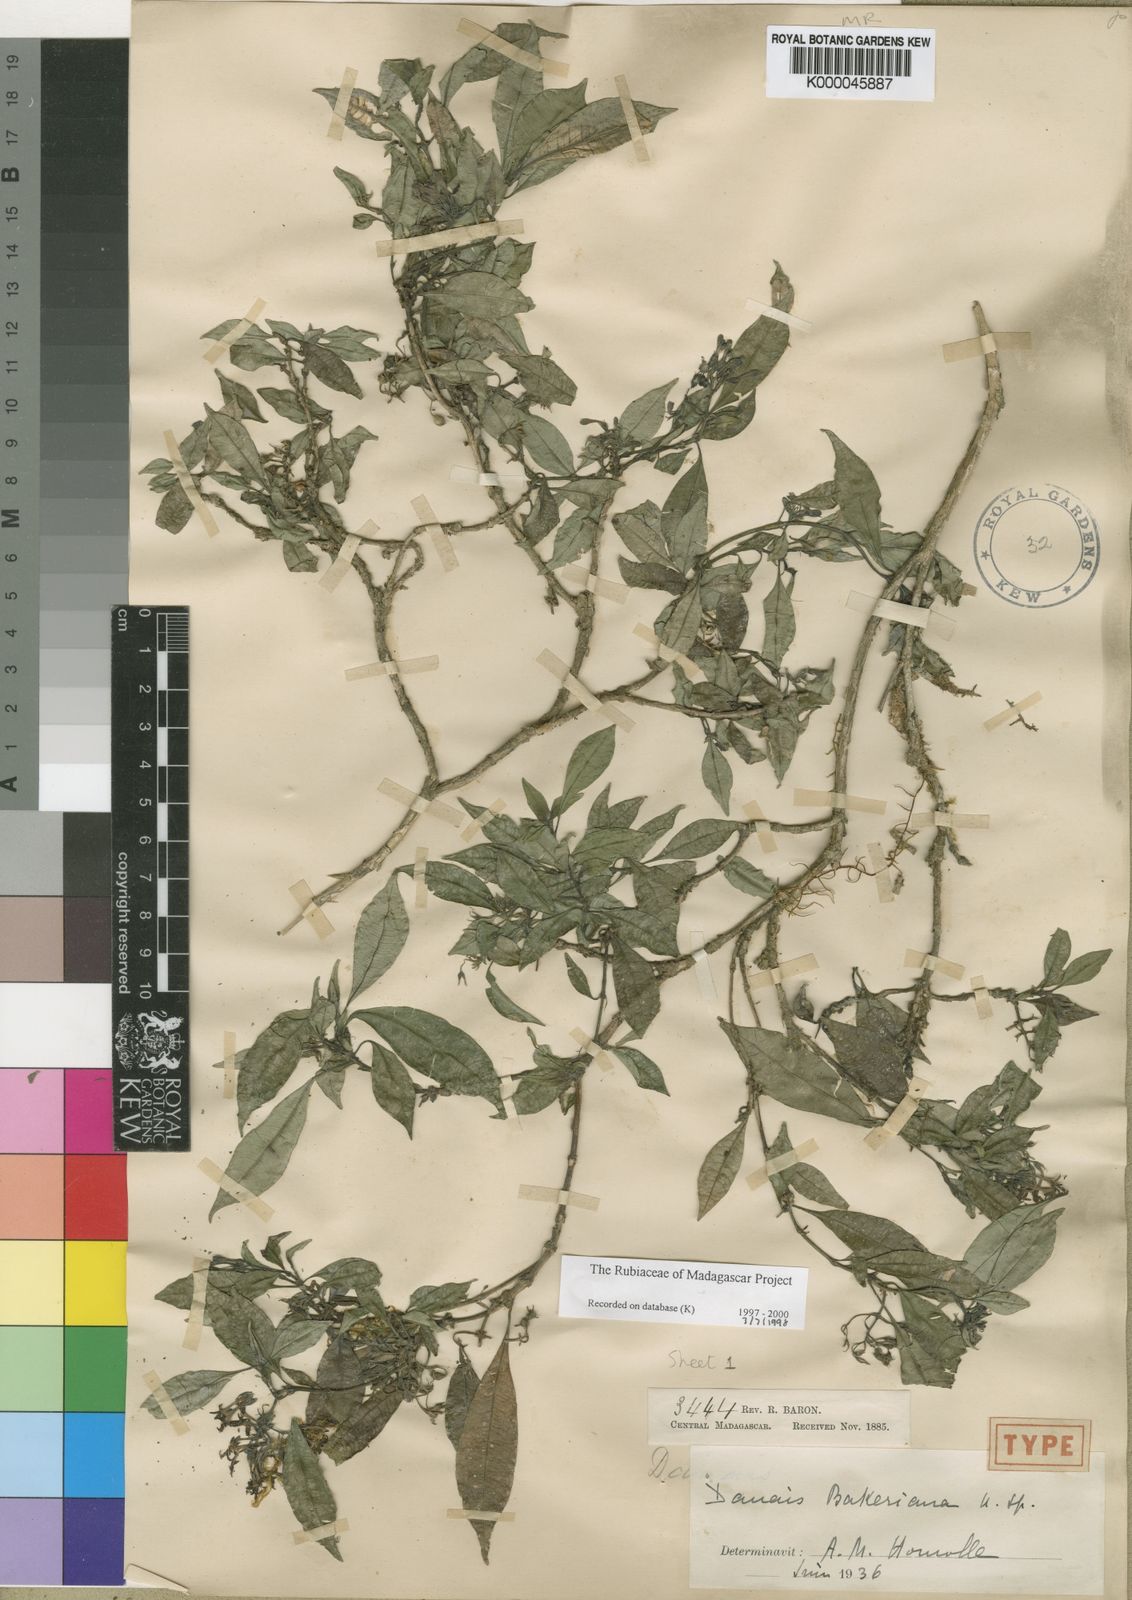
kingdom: Plantae
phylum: Tracheophyta
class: Magnoliopsida
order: Gentianales
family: Rubiaceae
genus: Payera
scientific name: Payera bakeriana
